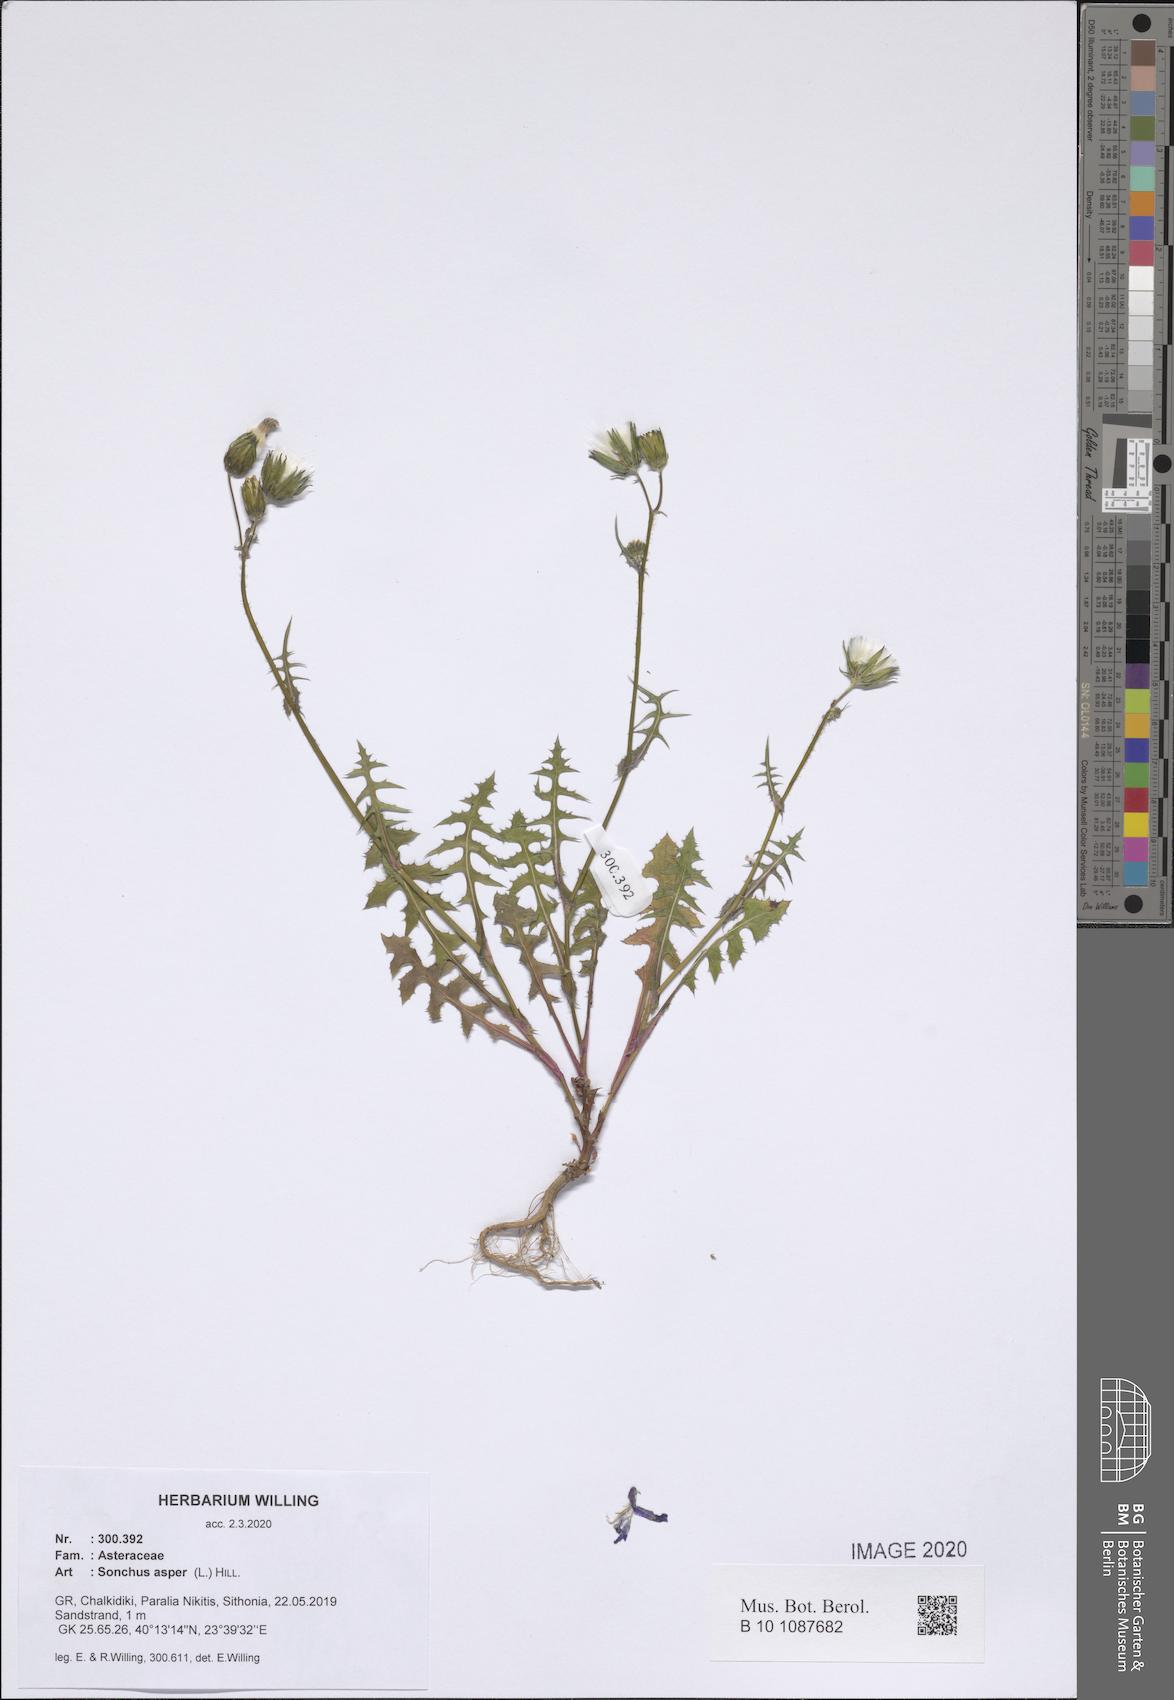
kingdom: Plantae
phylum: Tracheophyta
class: Magnoliopsida
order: Asterales
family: Asteraceae
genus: Sonchus
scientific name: Sonchus asper
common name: Prickly sow-thistle
